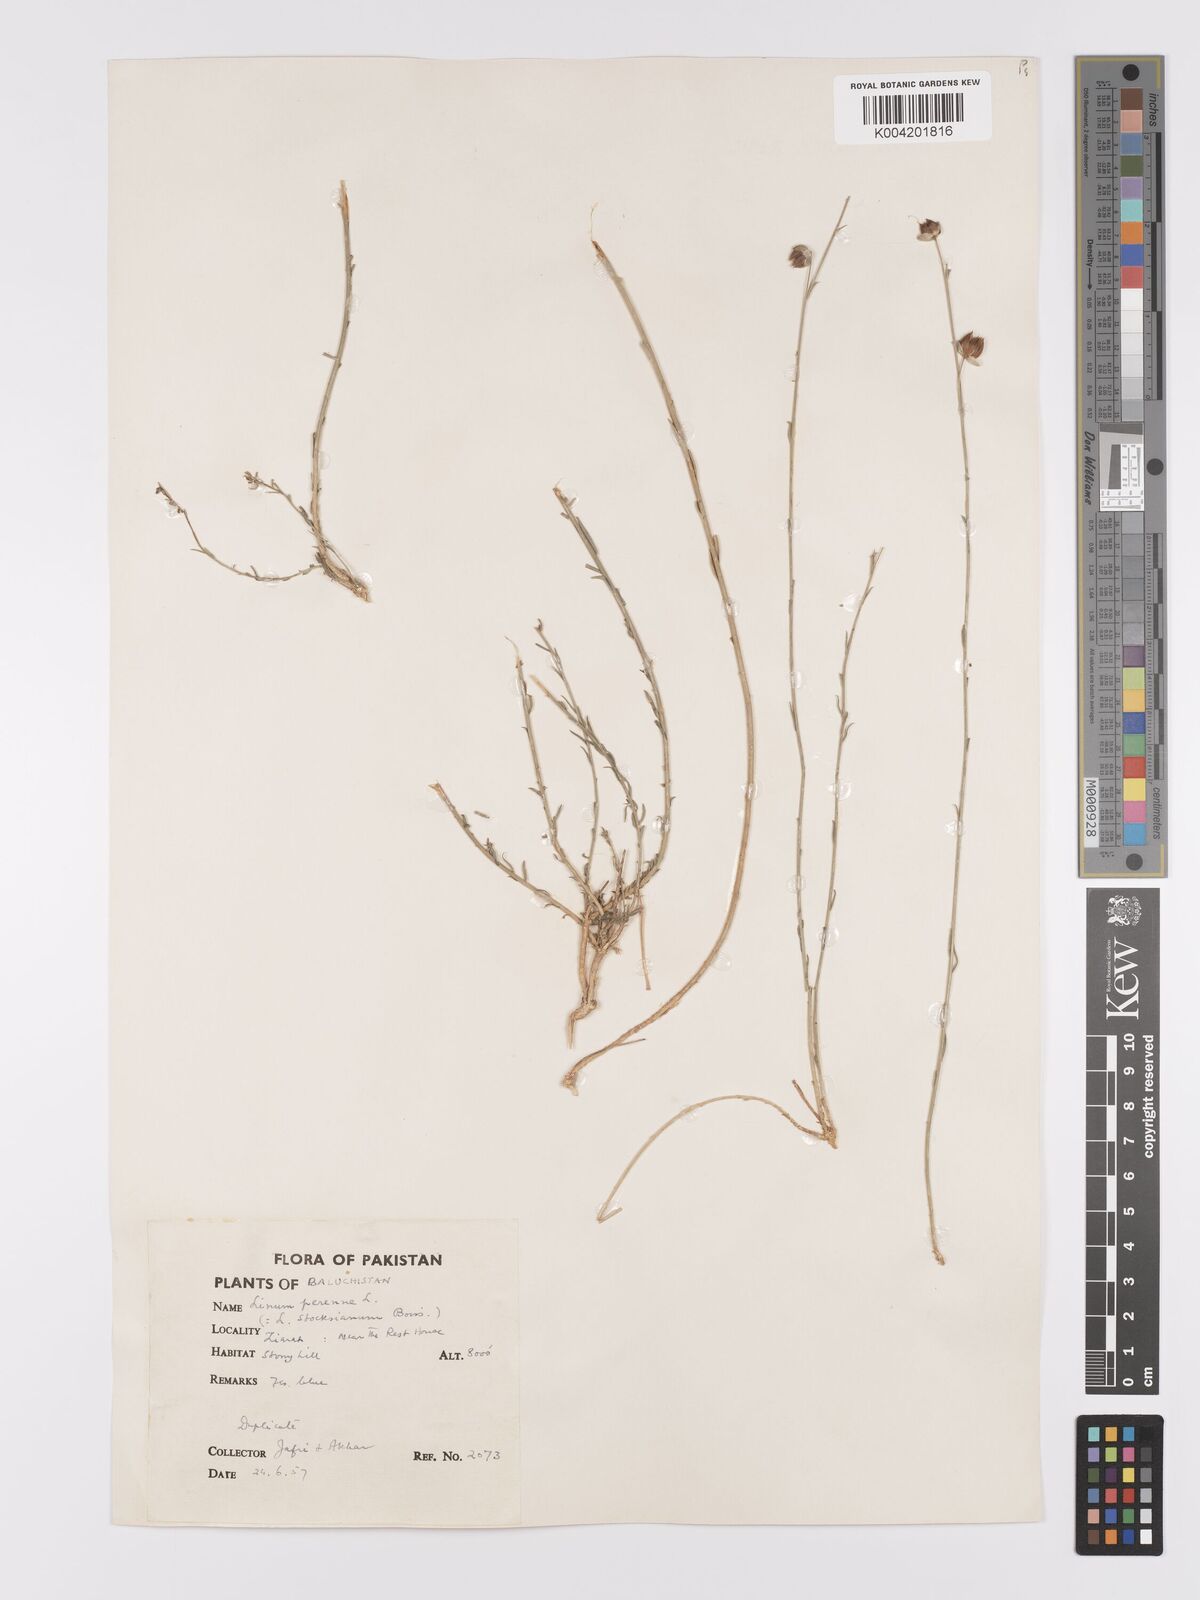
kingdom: Plantae
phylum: Tracheophyta
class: Magnoliopsida
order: Malpighiales
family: Linaceae
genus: Linum
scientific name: Linum stocksianum
